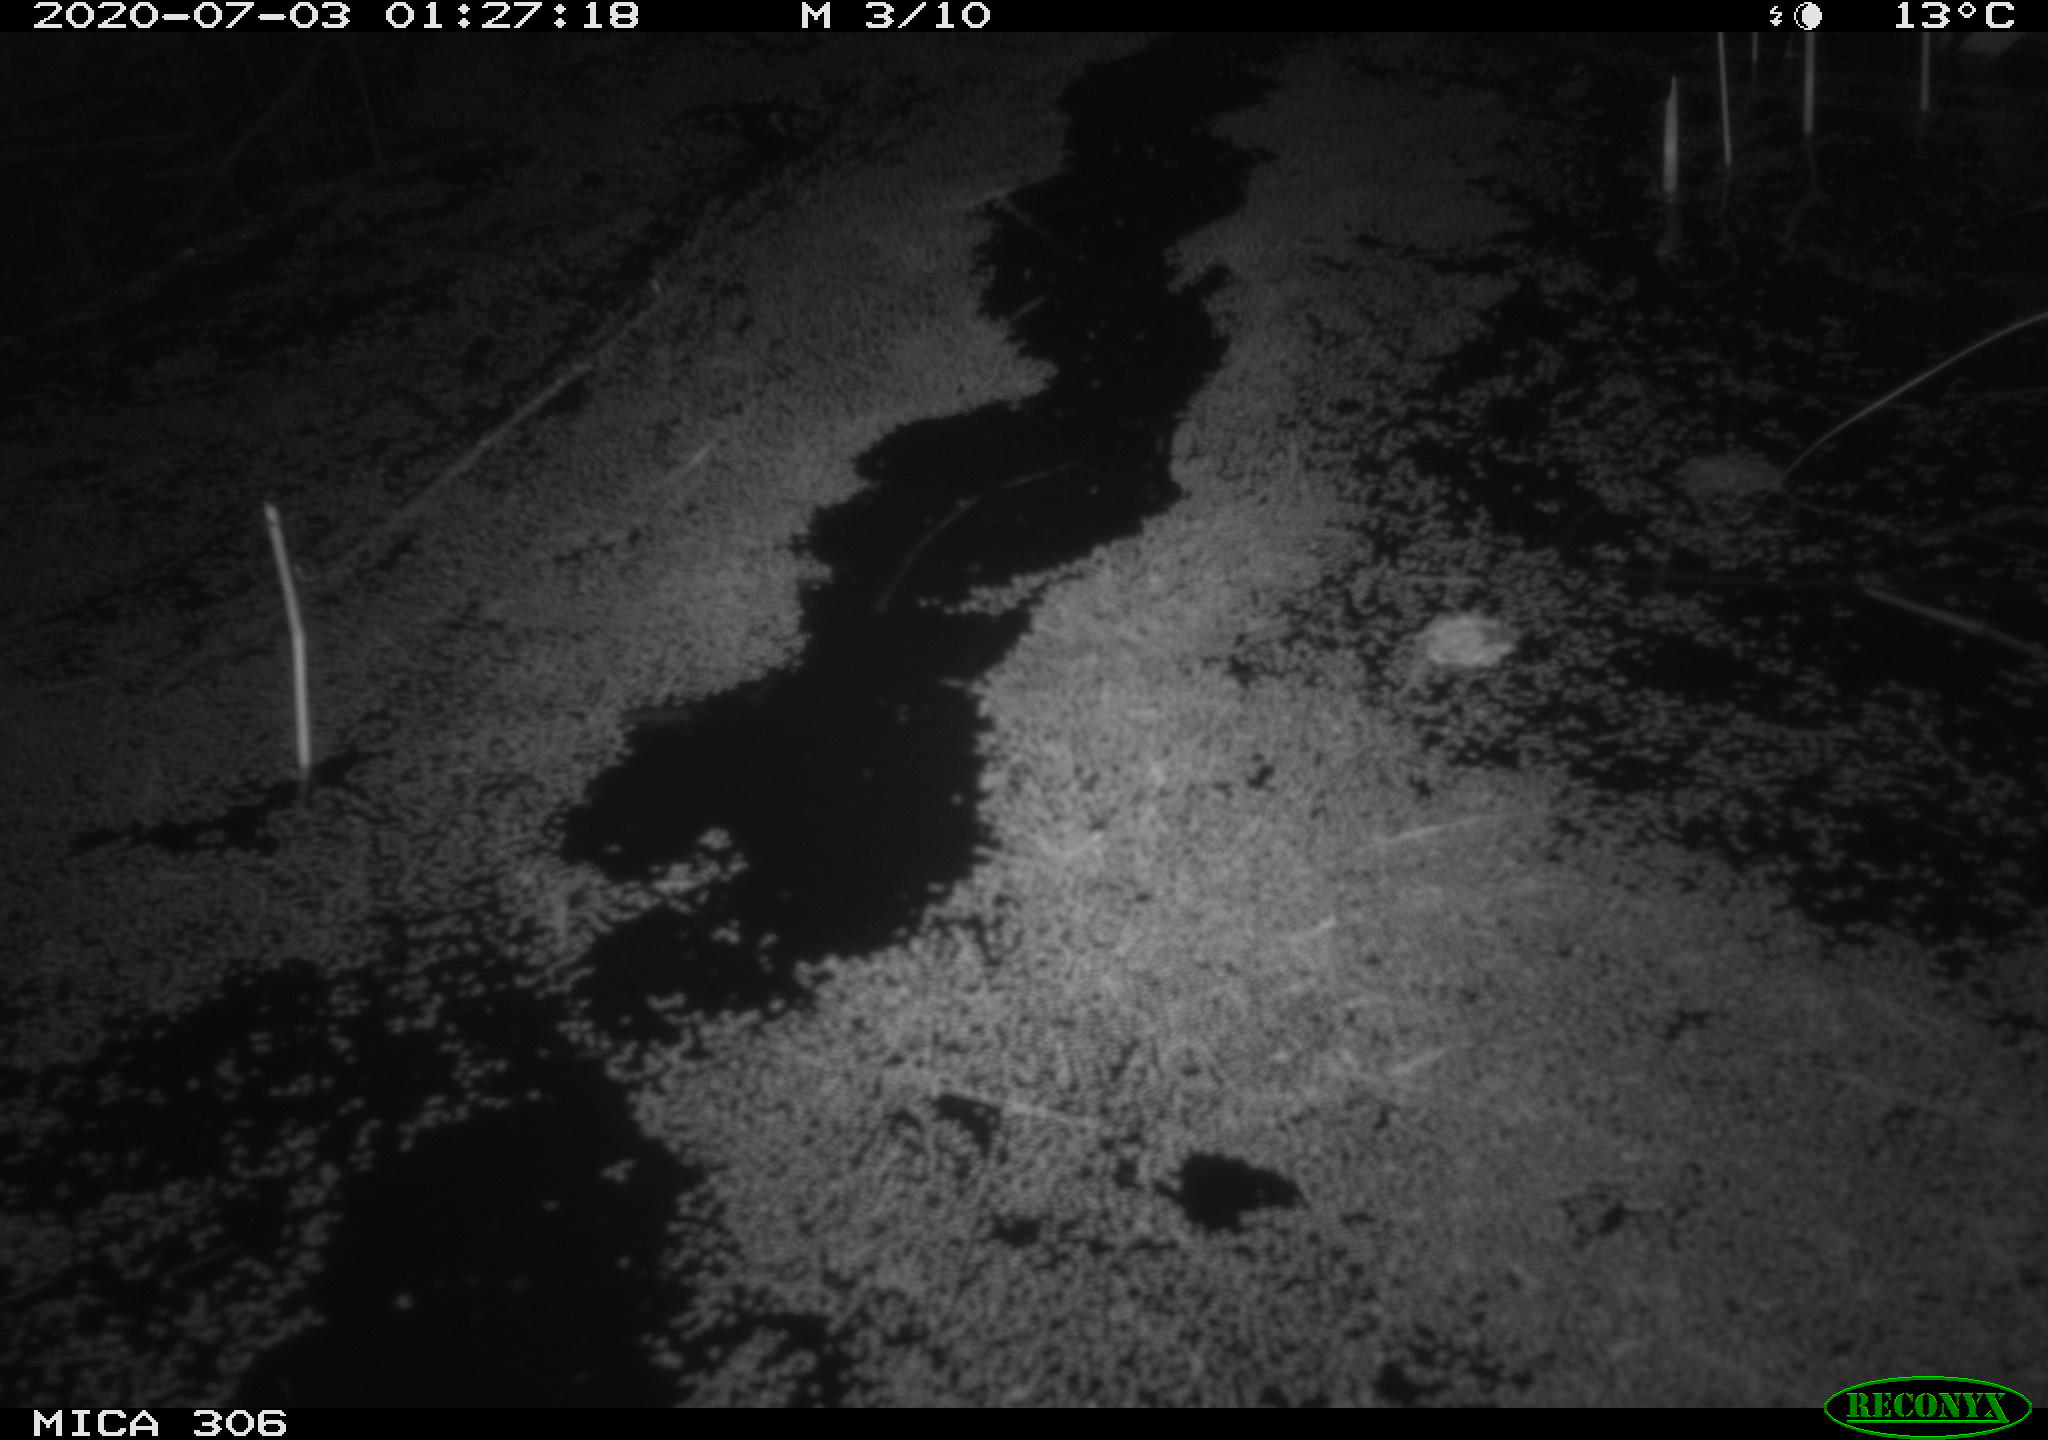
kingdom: Animalia
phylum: Chordata
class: Mammalia
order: Rodentia
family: Muridae
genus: Rattus
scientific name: Rattus norvegicus
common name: Brown rat
